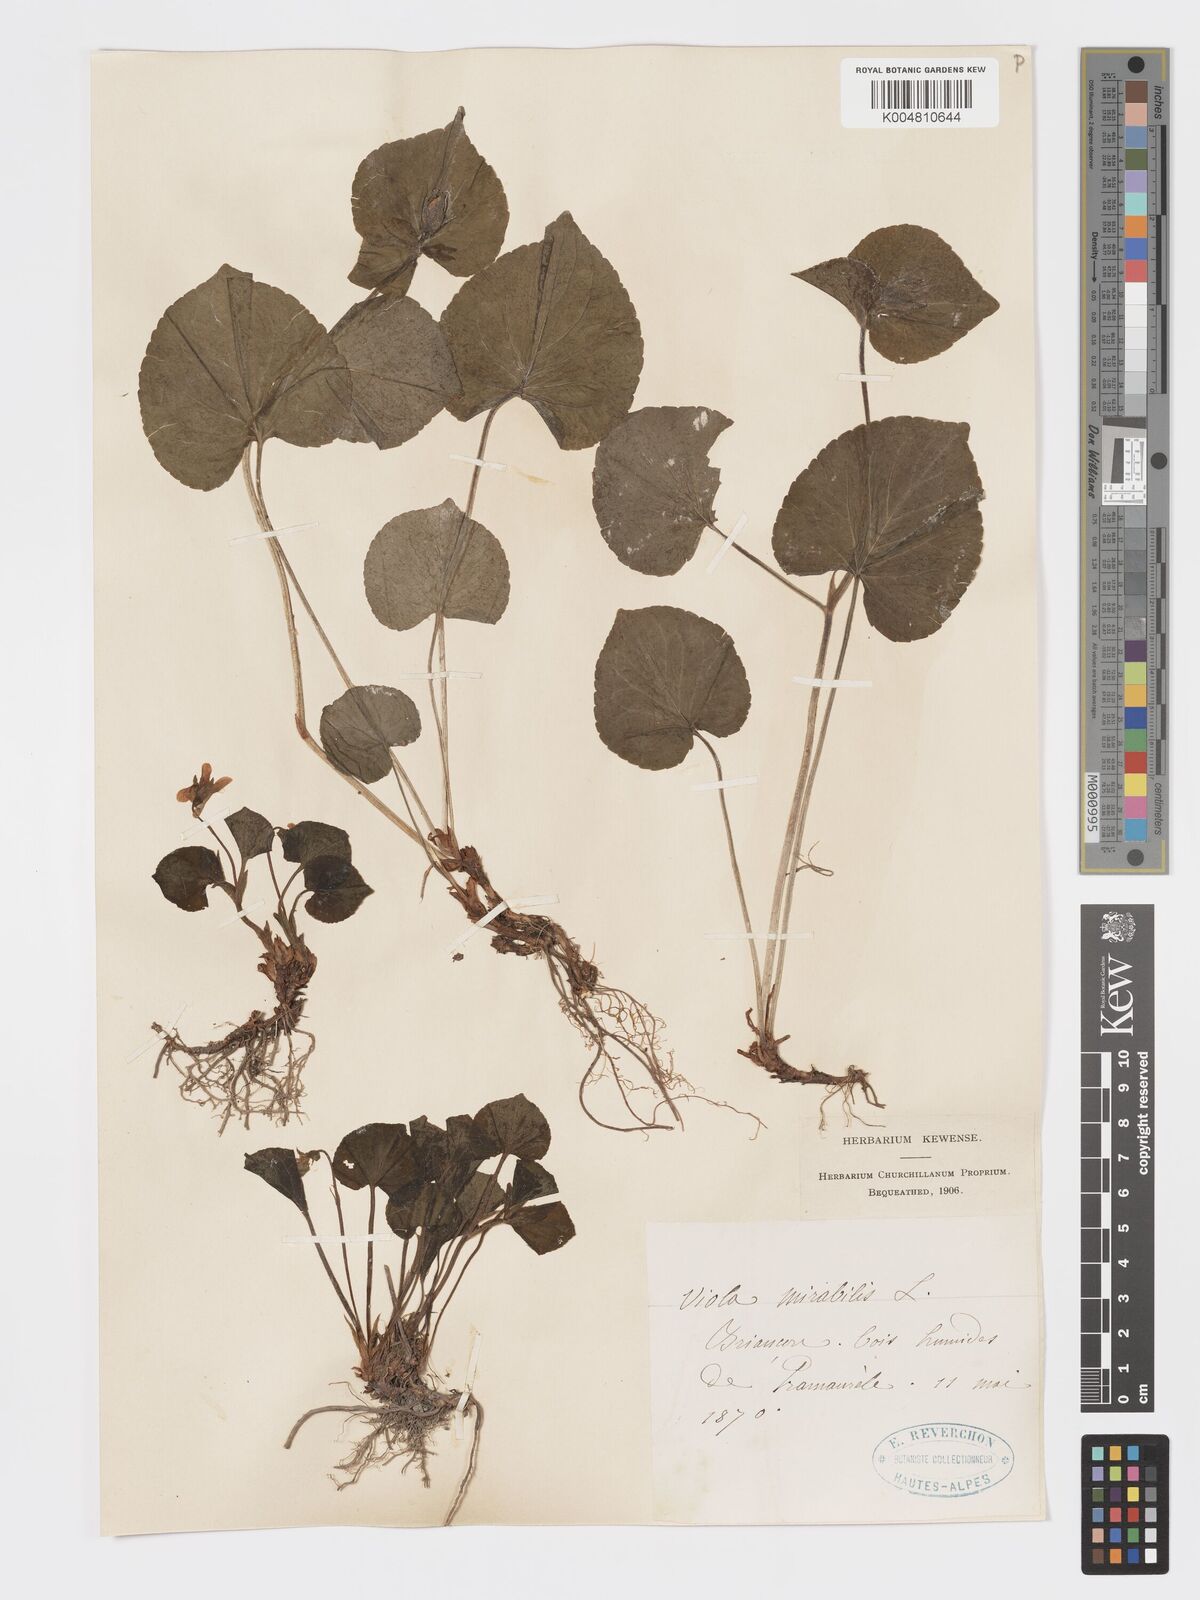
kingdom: Plantae
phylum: Tracheophyta
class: Magnoliopsida
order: Malpighiales
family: Violaceae
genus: Viola
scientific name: Viola mirabilis
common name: Wonder violet
